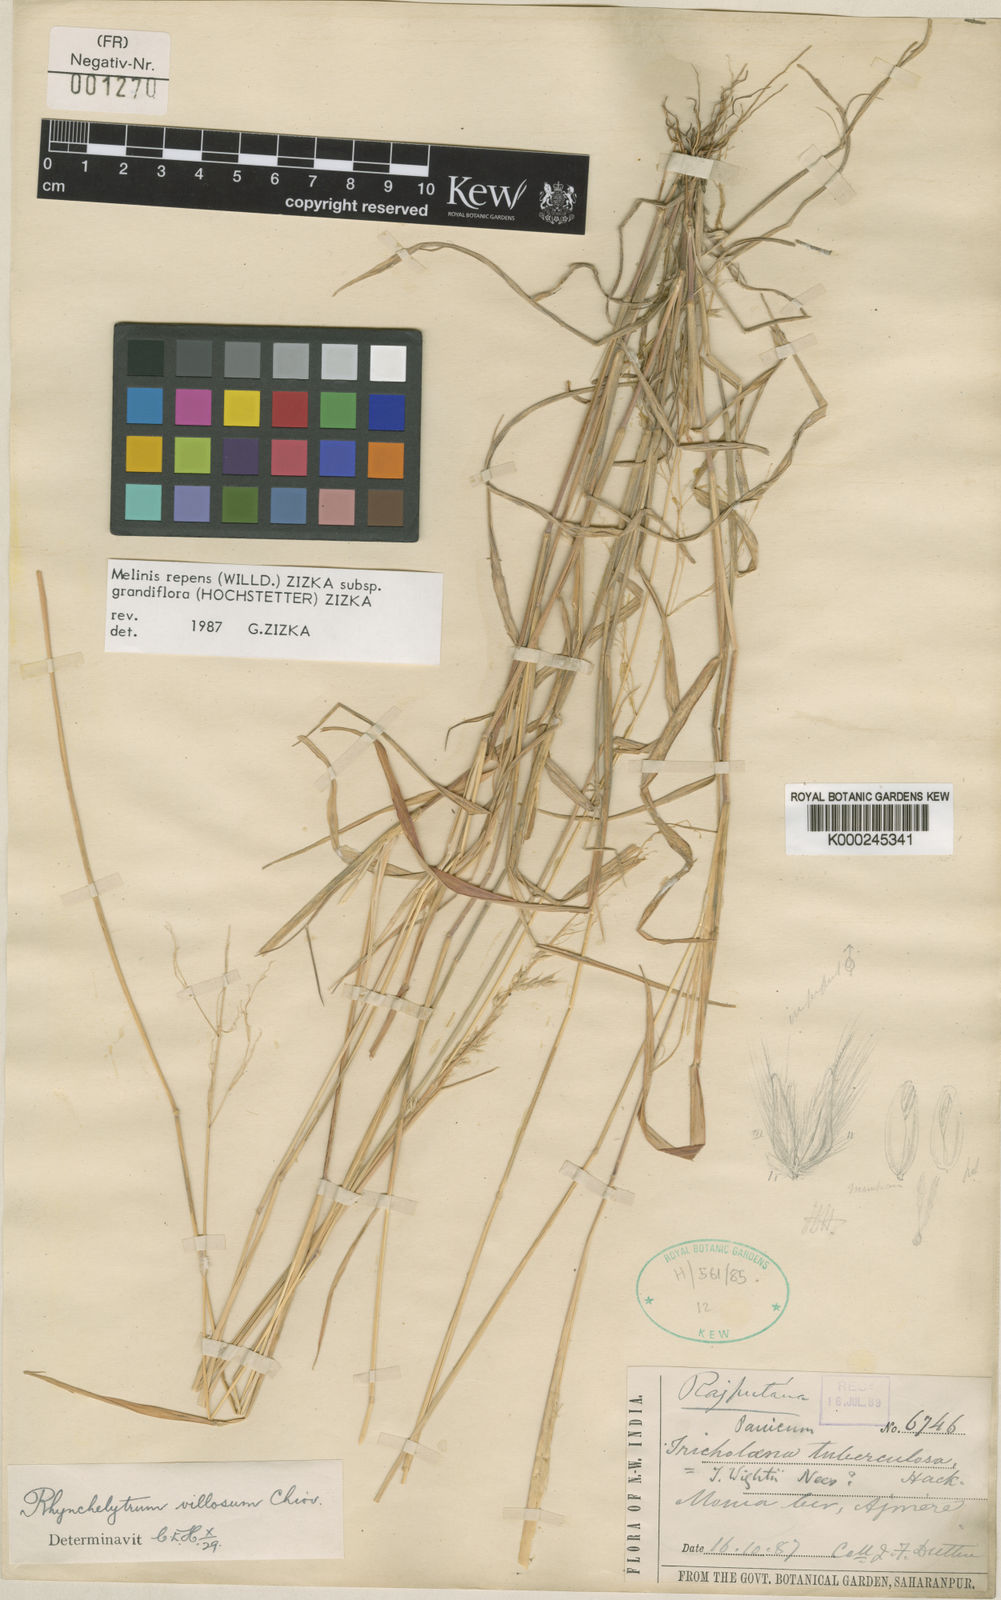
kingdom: Plantae
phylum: Tracheophyta
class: Liliopsida
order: Poales
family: Poaceae
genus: Melinis
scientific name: Melinis repens
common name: Rose natal grass
